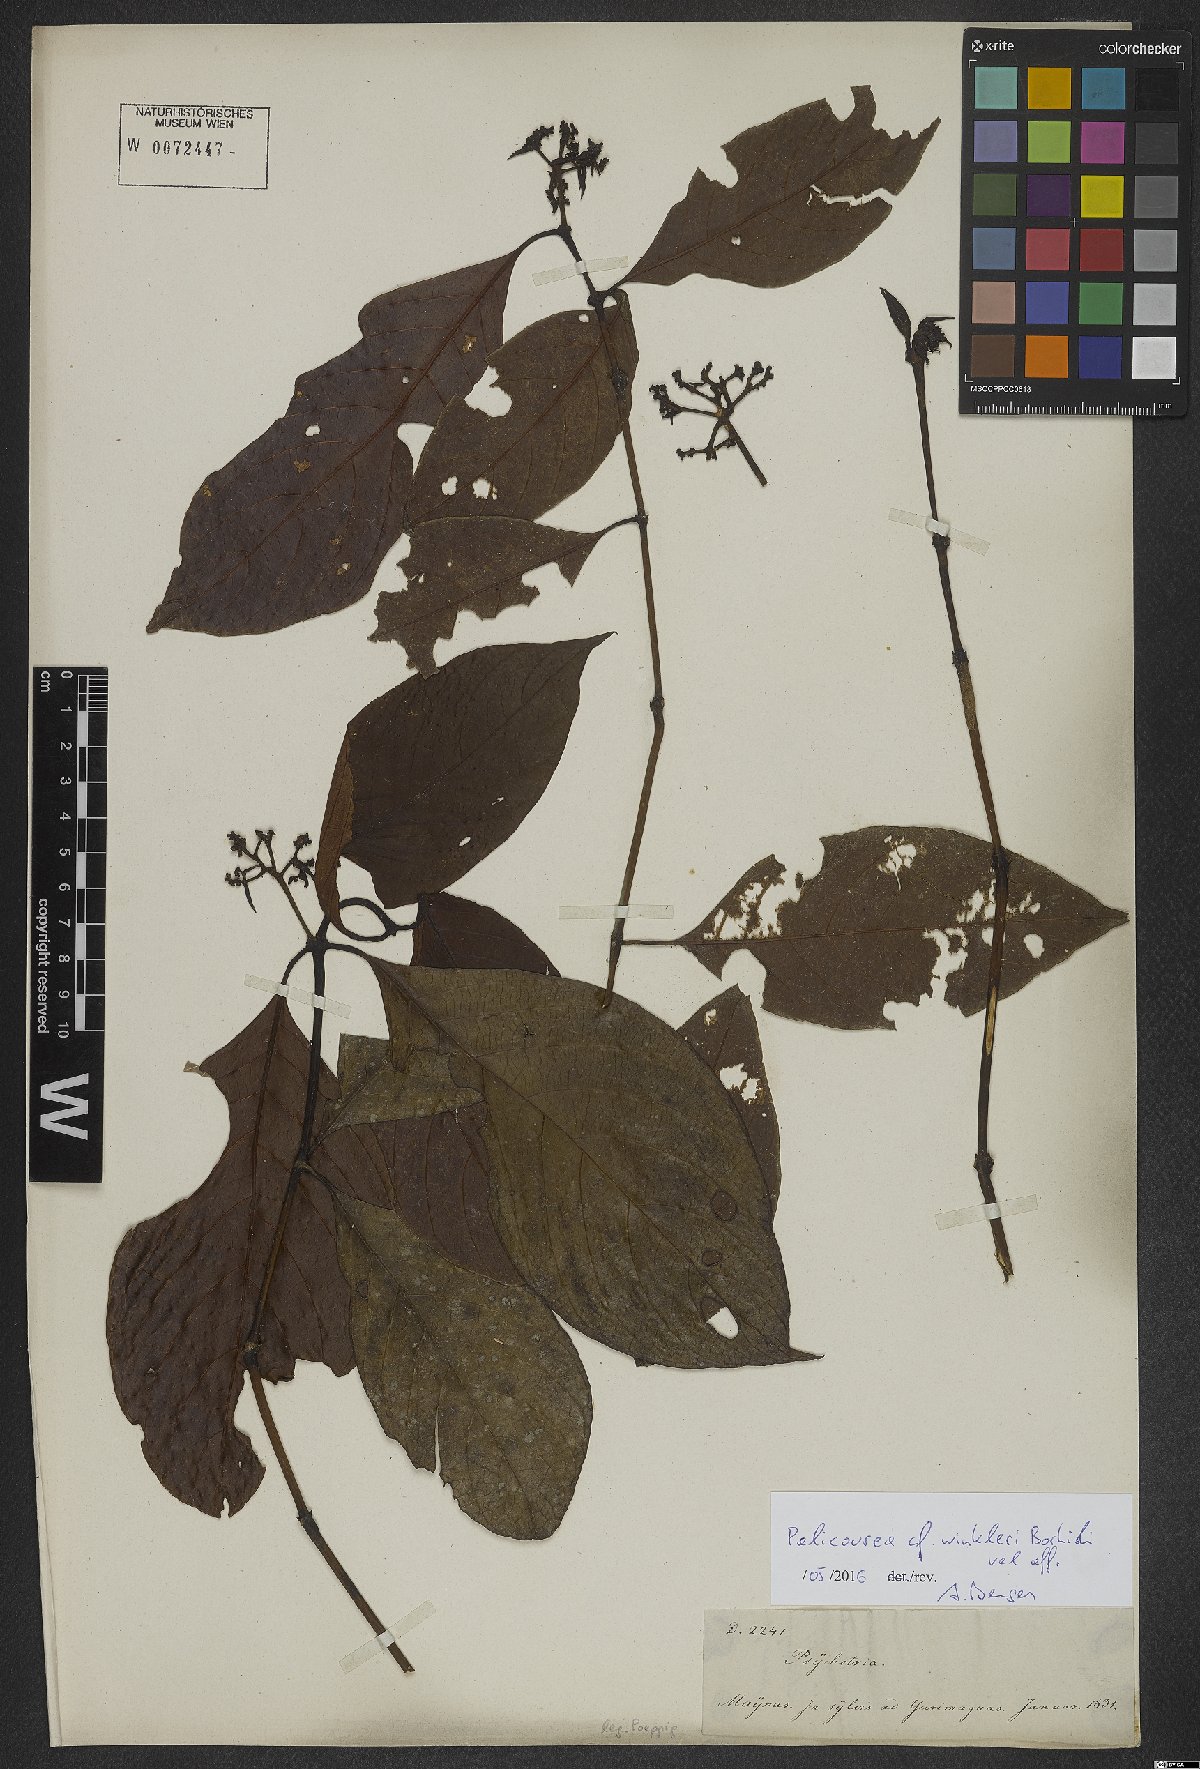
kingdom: Plantae
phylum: Tracheophyta
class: Magnoliopsida
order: Gentianales
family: Rubiaceae
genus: Palicourea
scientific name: Palicourea winkleri
